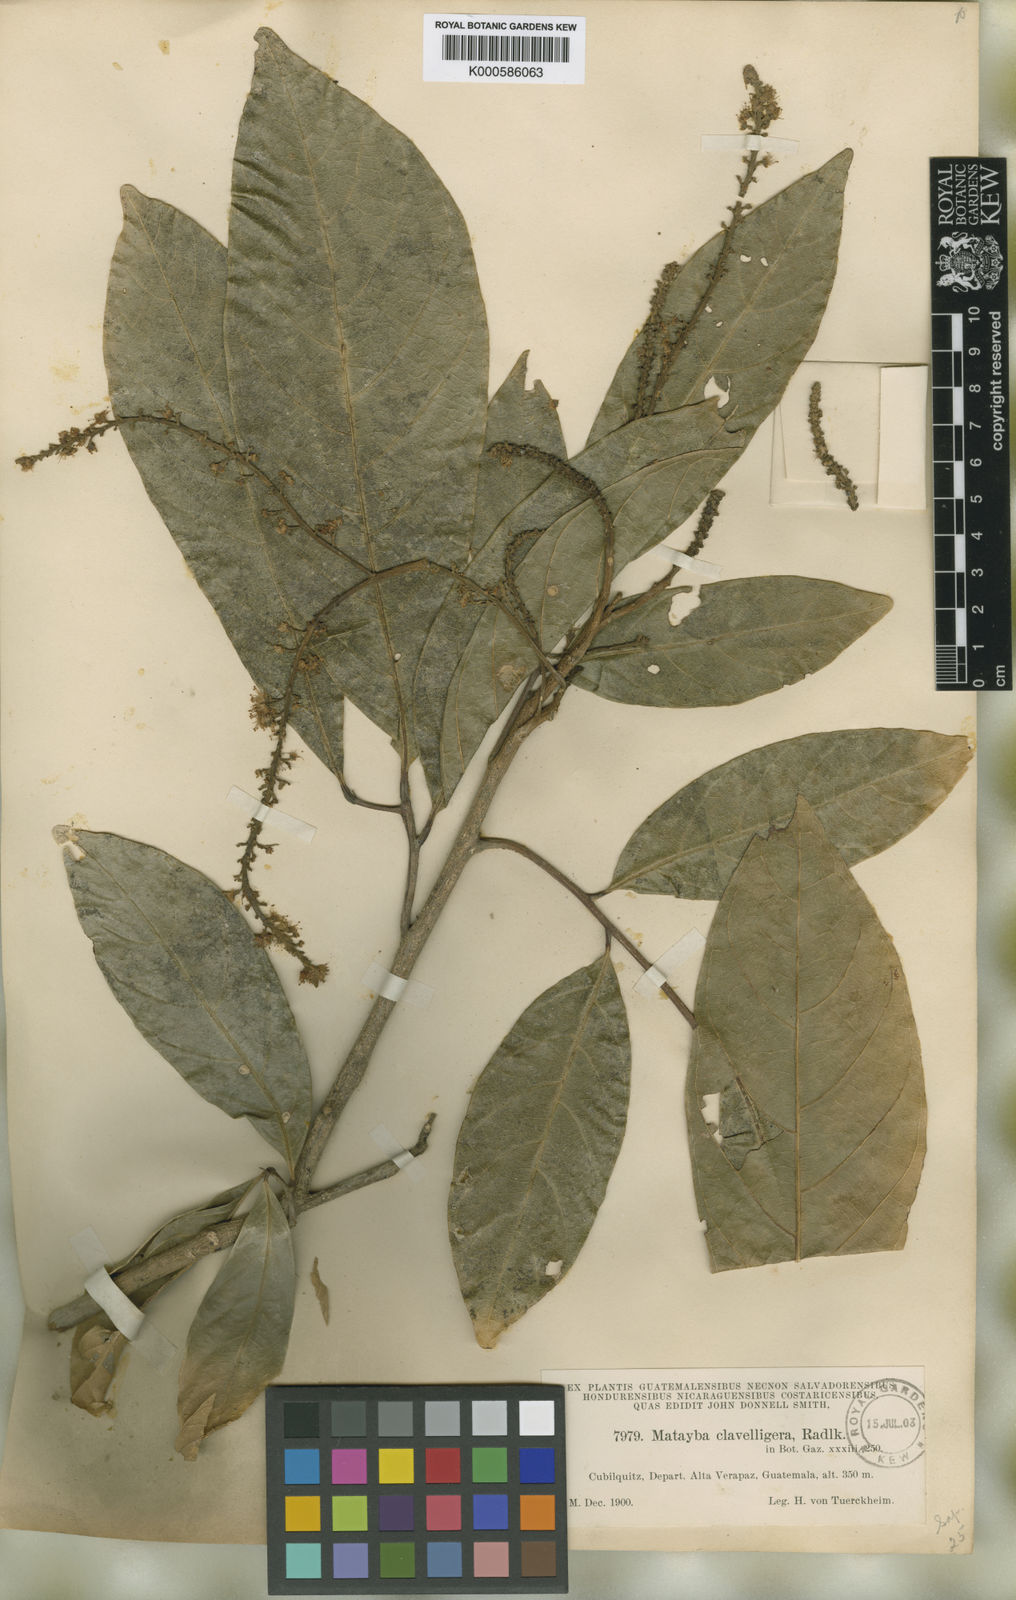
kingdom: Plantae
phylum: Tracheophyta
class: Magnoliopsida
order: Sapindales
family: Sapindaceae
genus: Matayba
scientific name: Matayba clavelligera
